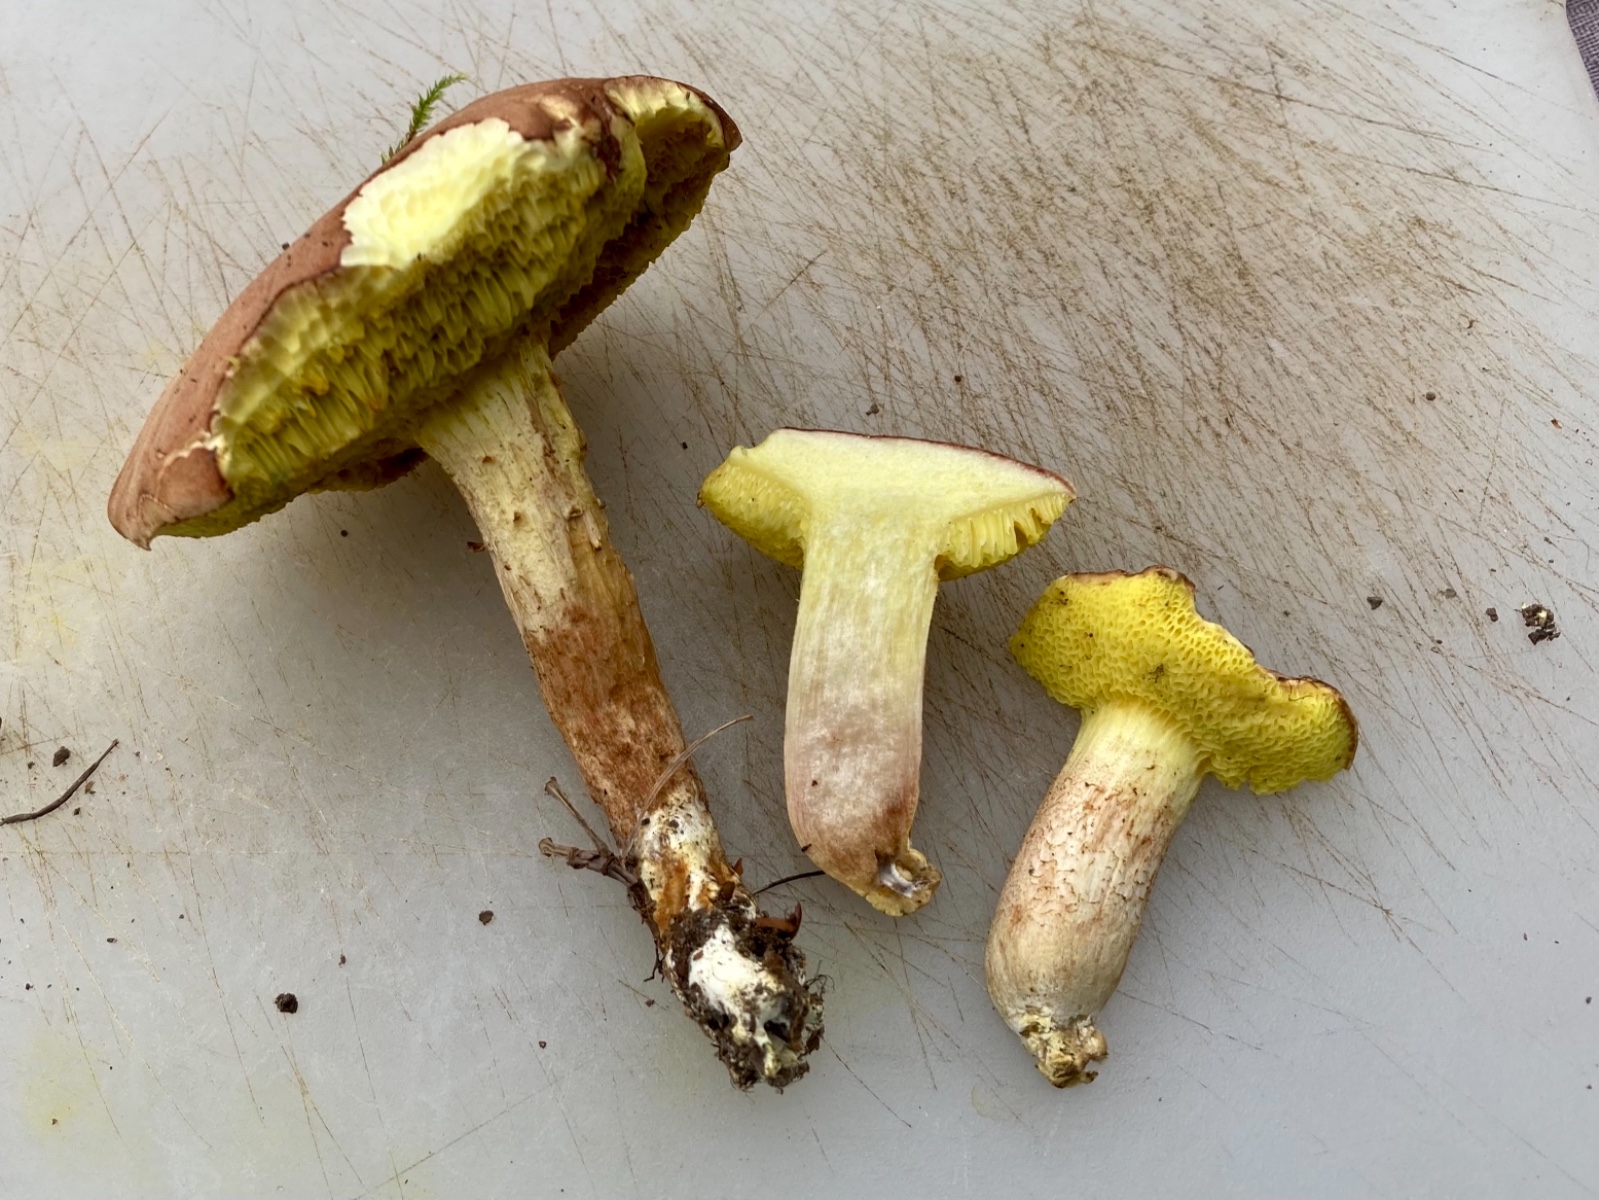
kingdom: Fungi
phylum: Basidiomycota
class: Agaricomycetes
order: Boletales
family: Boletaceae
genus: Xerocomus
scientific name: Xerocomus subtomentosus
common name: filtet rørhat
